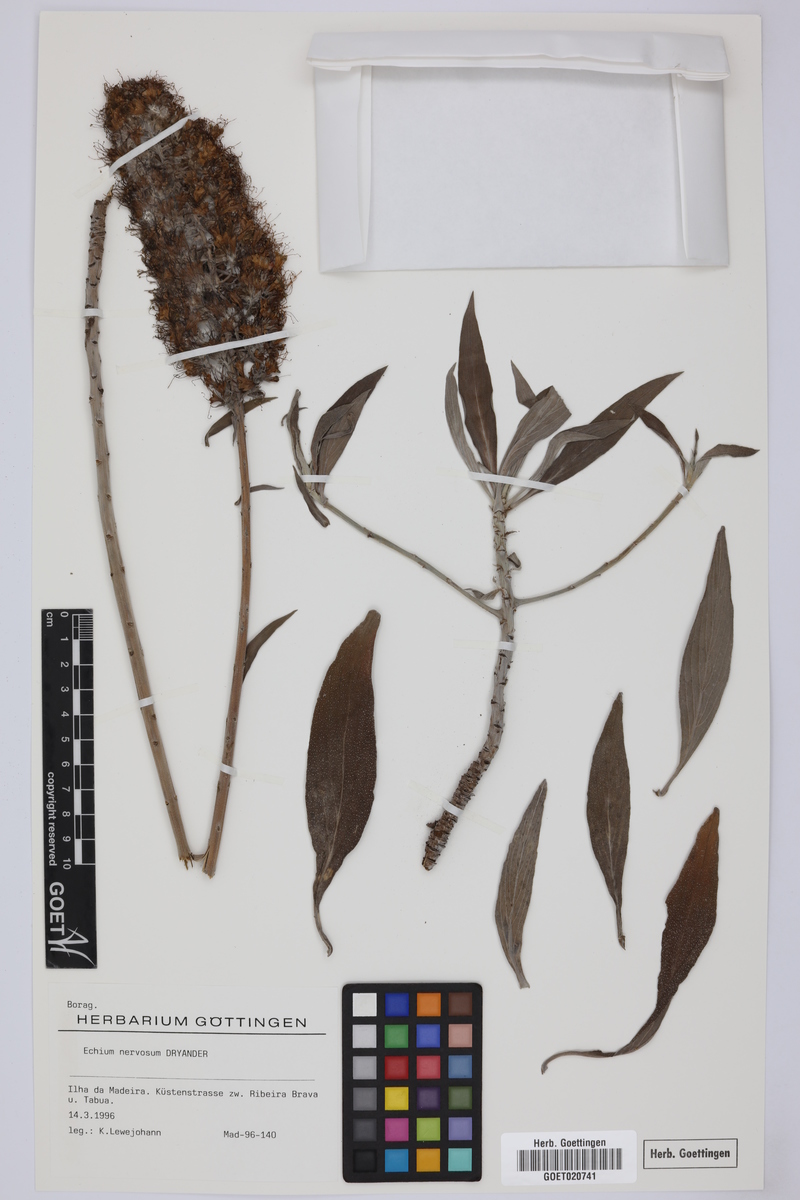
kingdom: Plantae
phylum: Tracheophyta
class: Magnoliopsida
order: Boraginales
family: Boraginaceae
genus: Echium
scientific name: Echium nervosum
